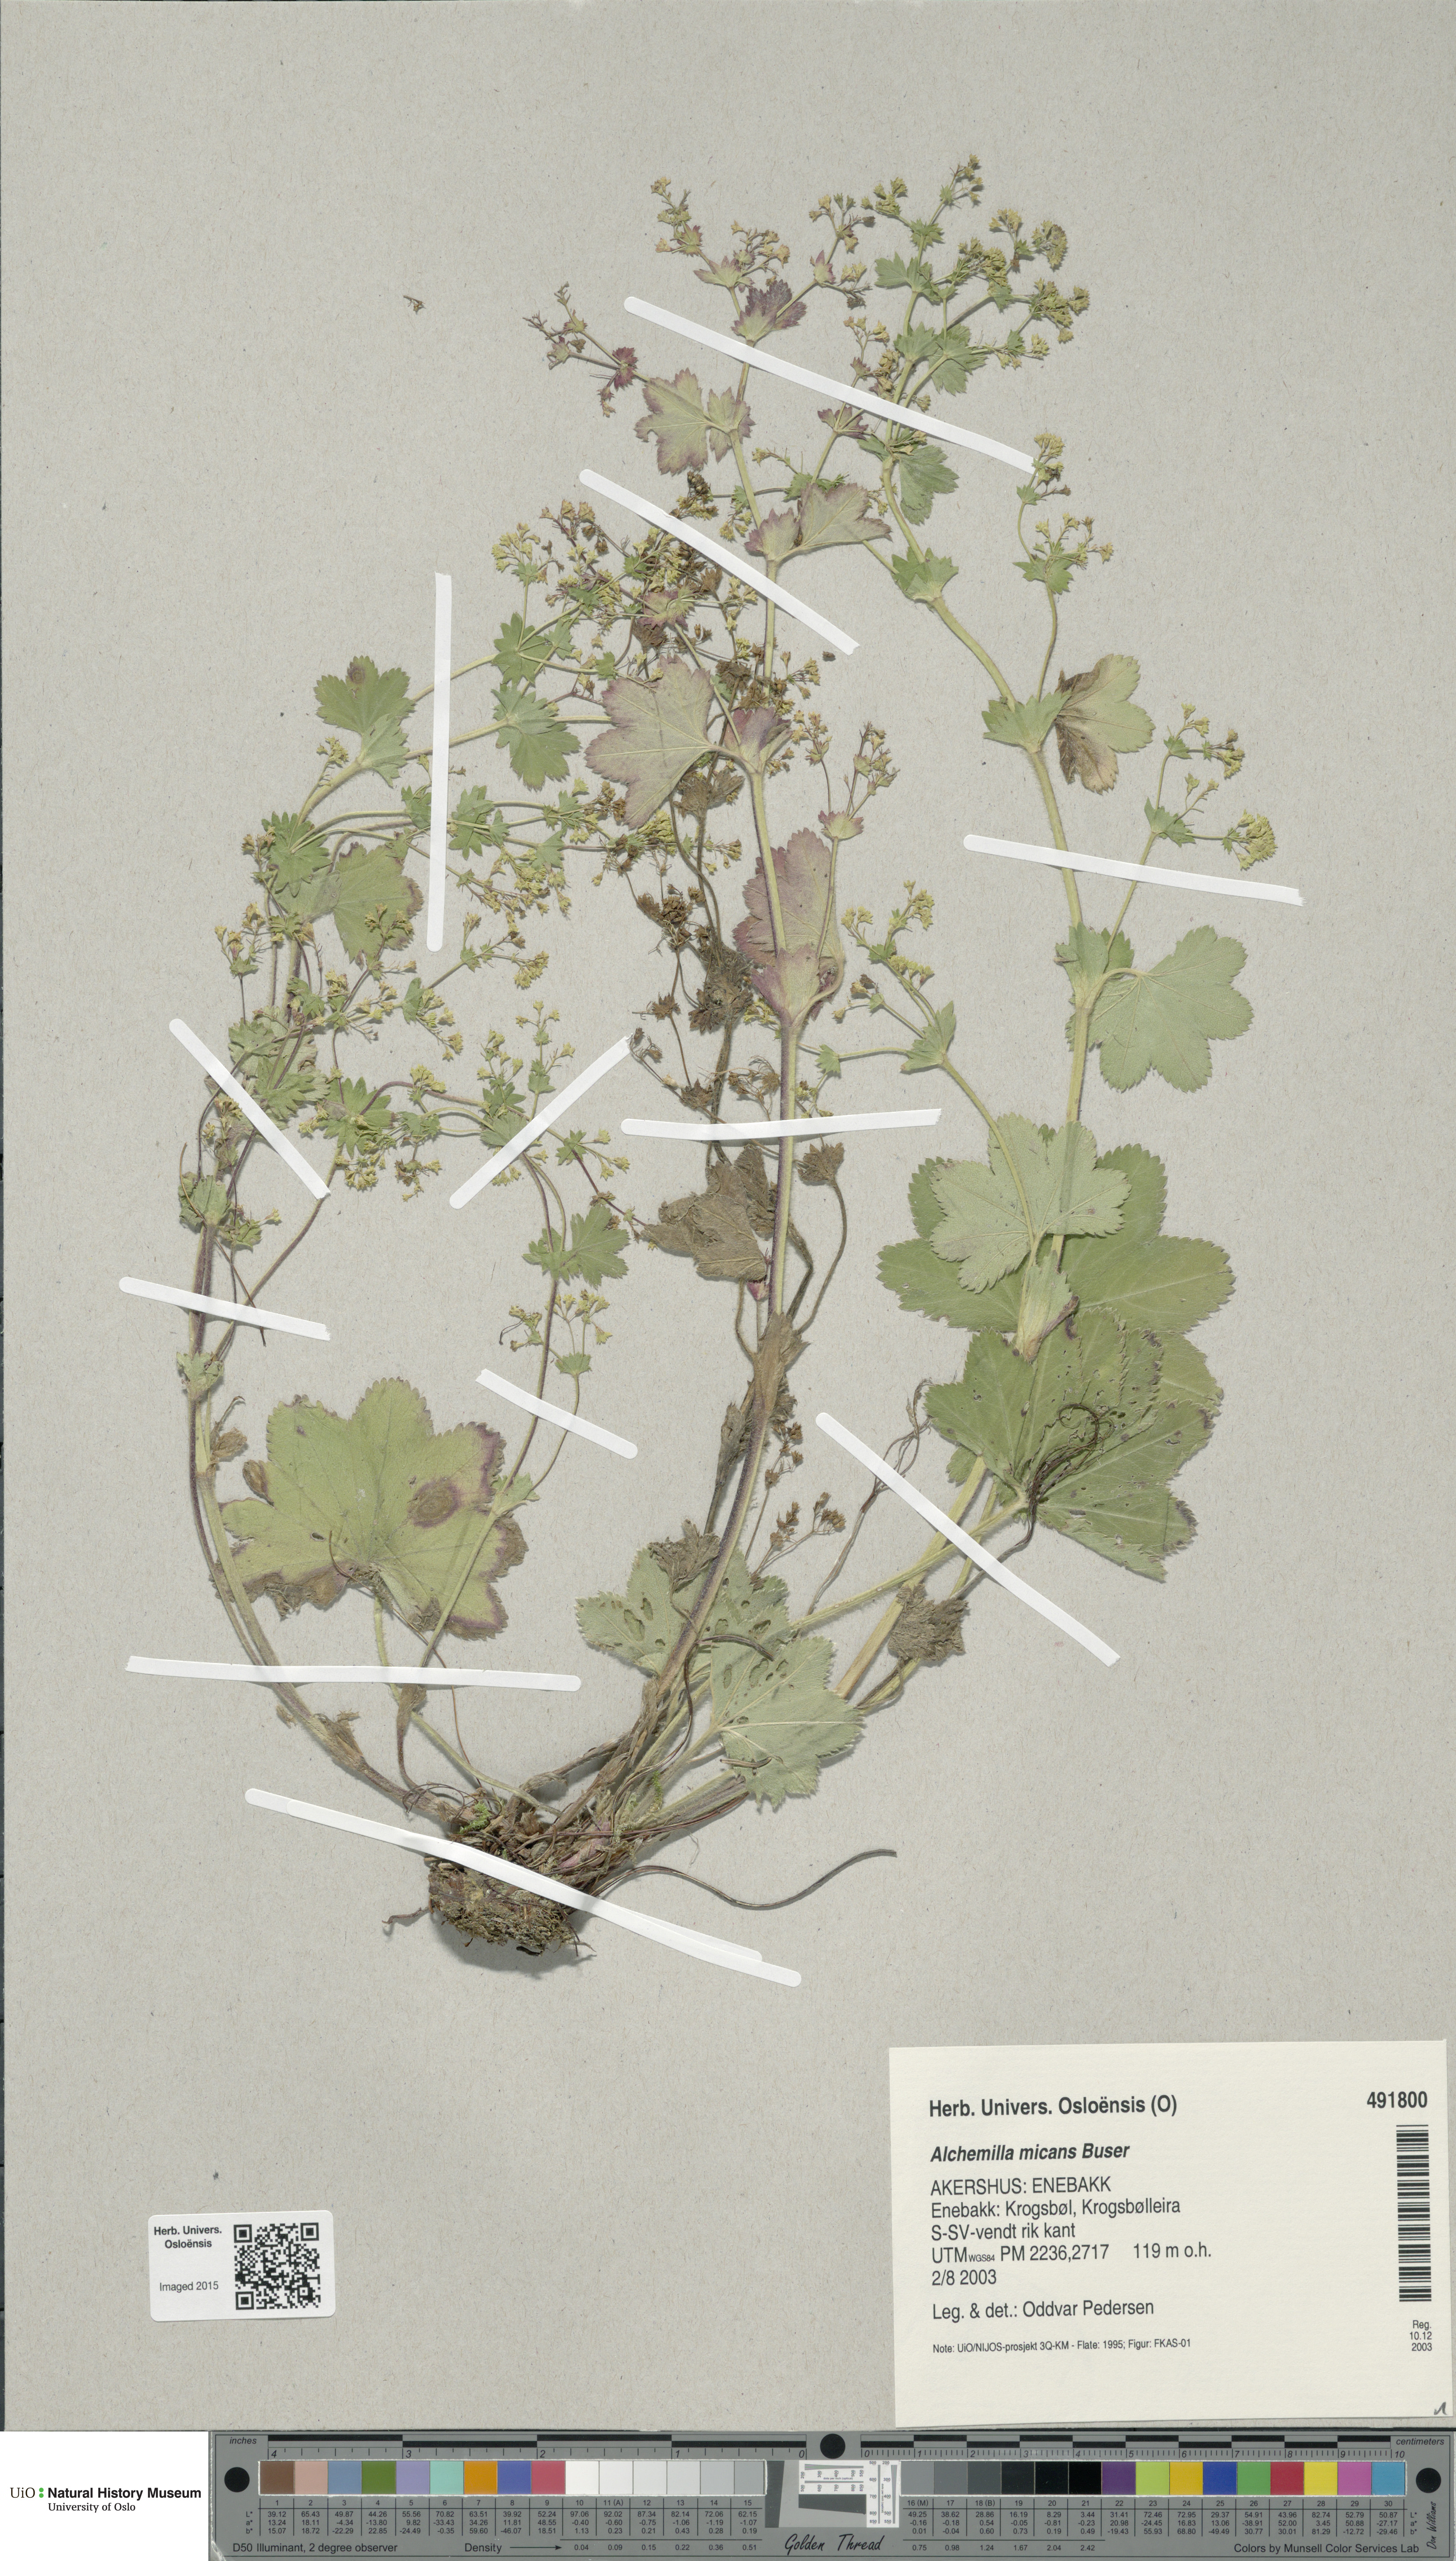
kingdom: Plantae
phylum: Tracheophyta
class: Magnoliopsida
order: Rosales
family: Rosaceae
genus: Alchemilla
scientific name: Alchemilla micans
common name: Gleaming lady's mantle
